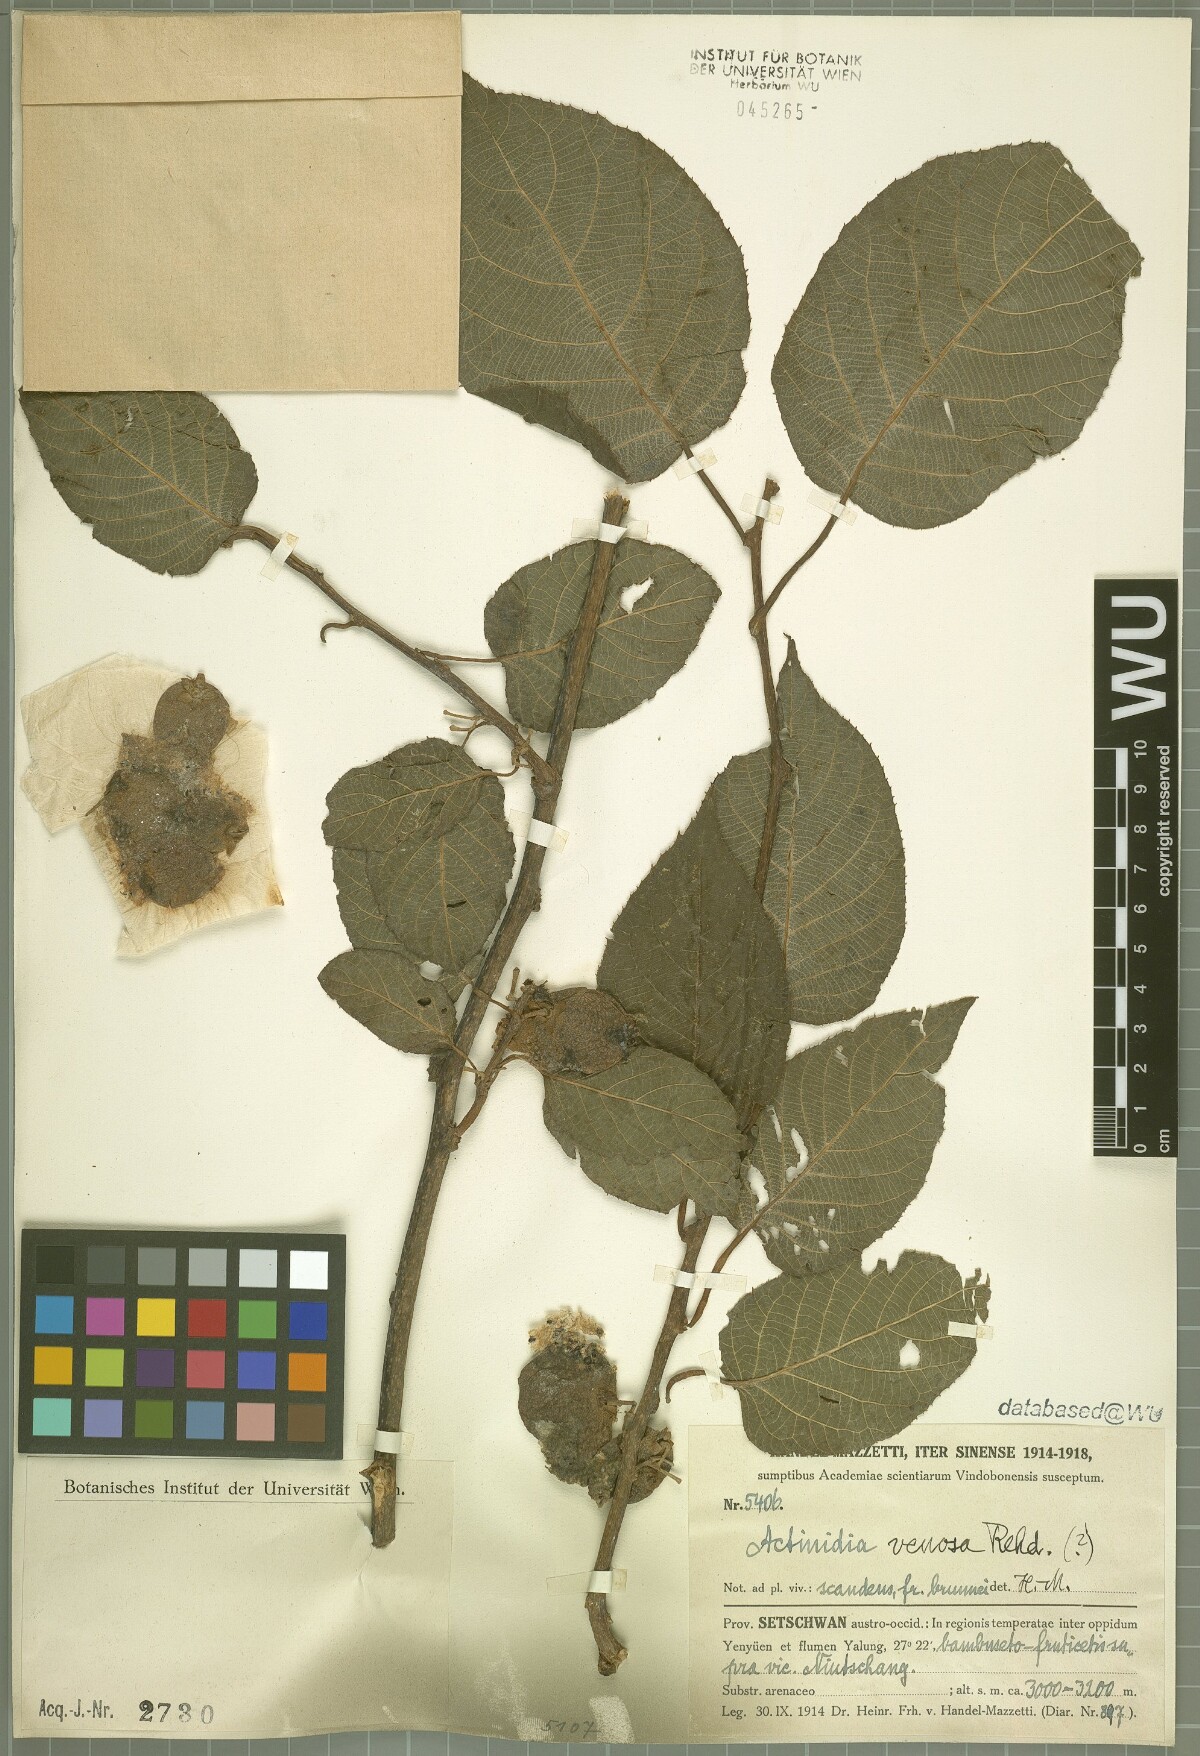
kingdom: Plantae
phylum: Tracheophyta
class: Magnoliopsida
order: Ericales
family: Actinidiaceae
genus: Actinidia
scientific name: Actinidia venosa
